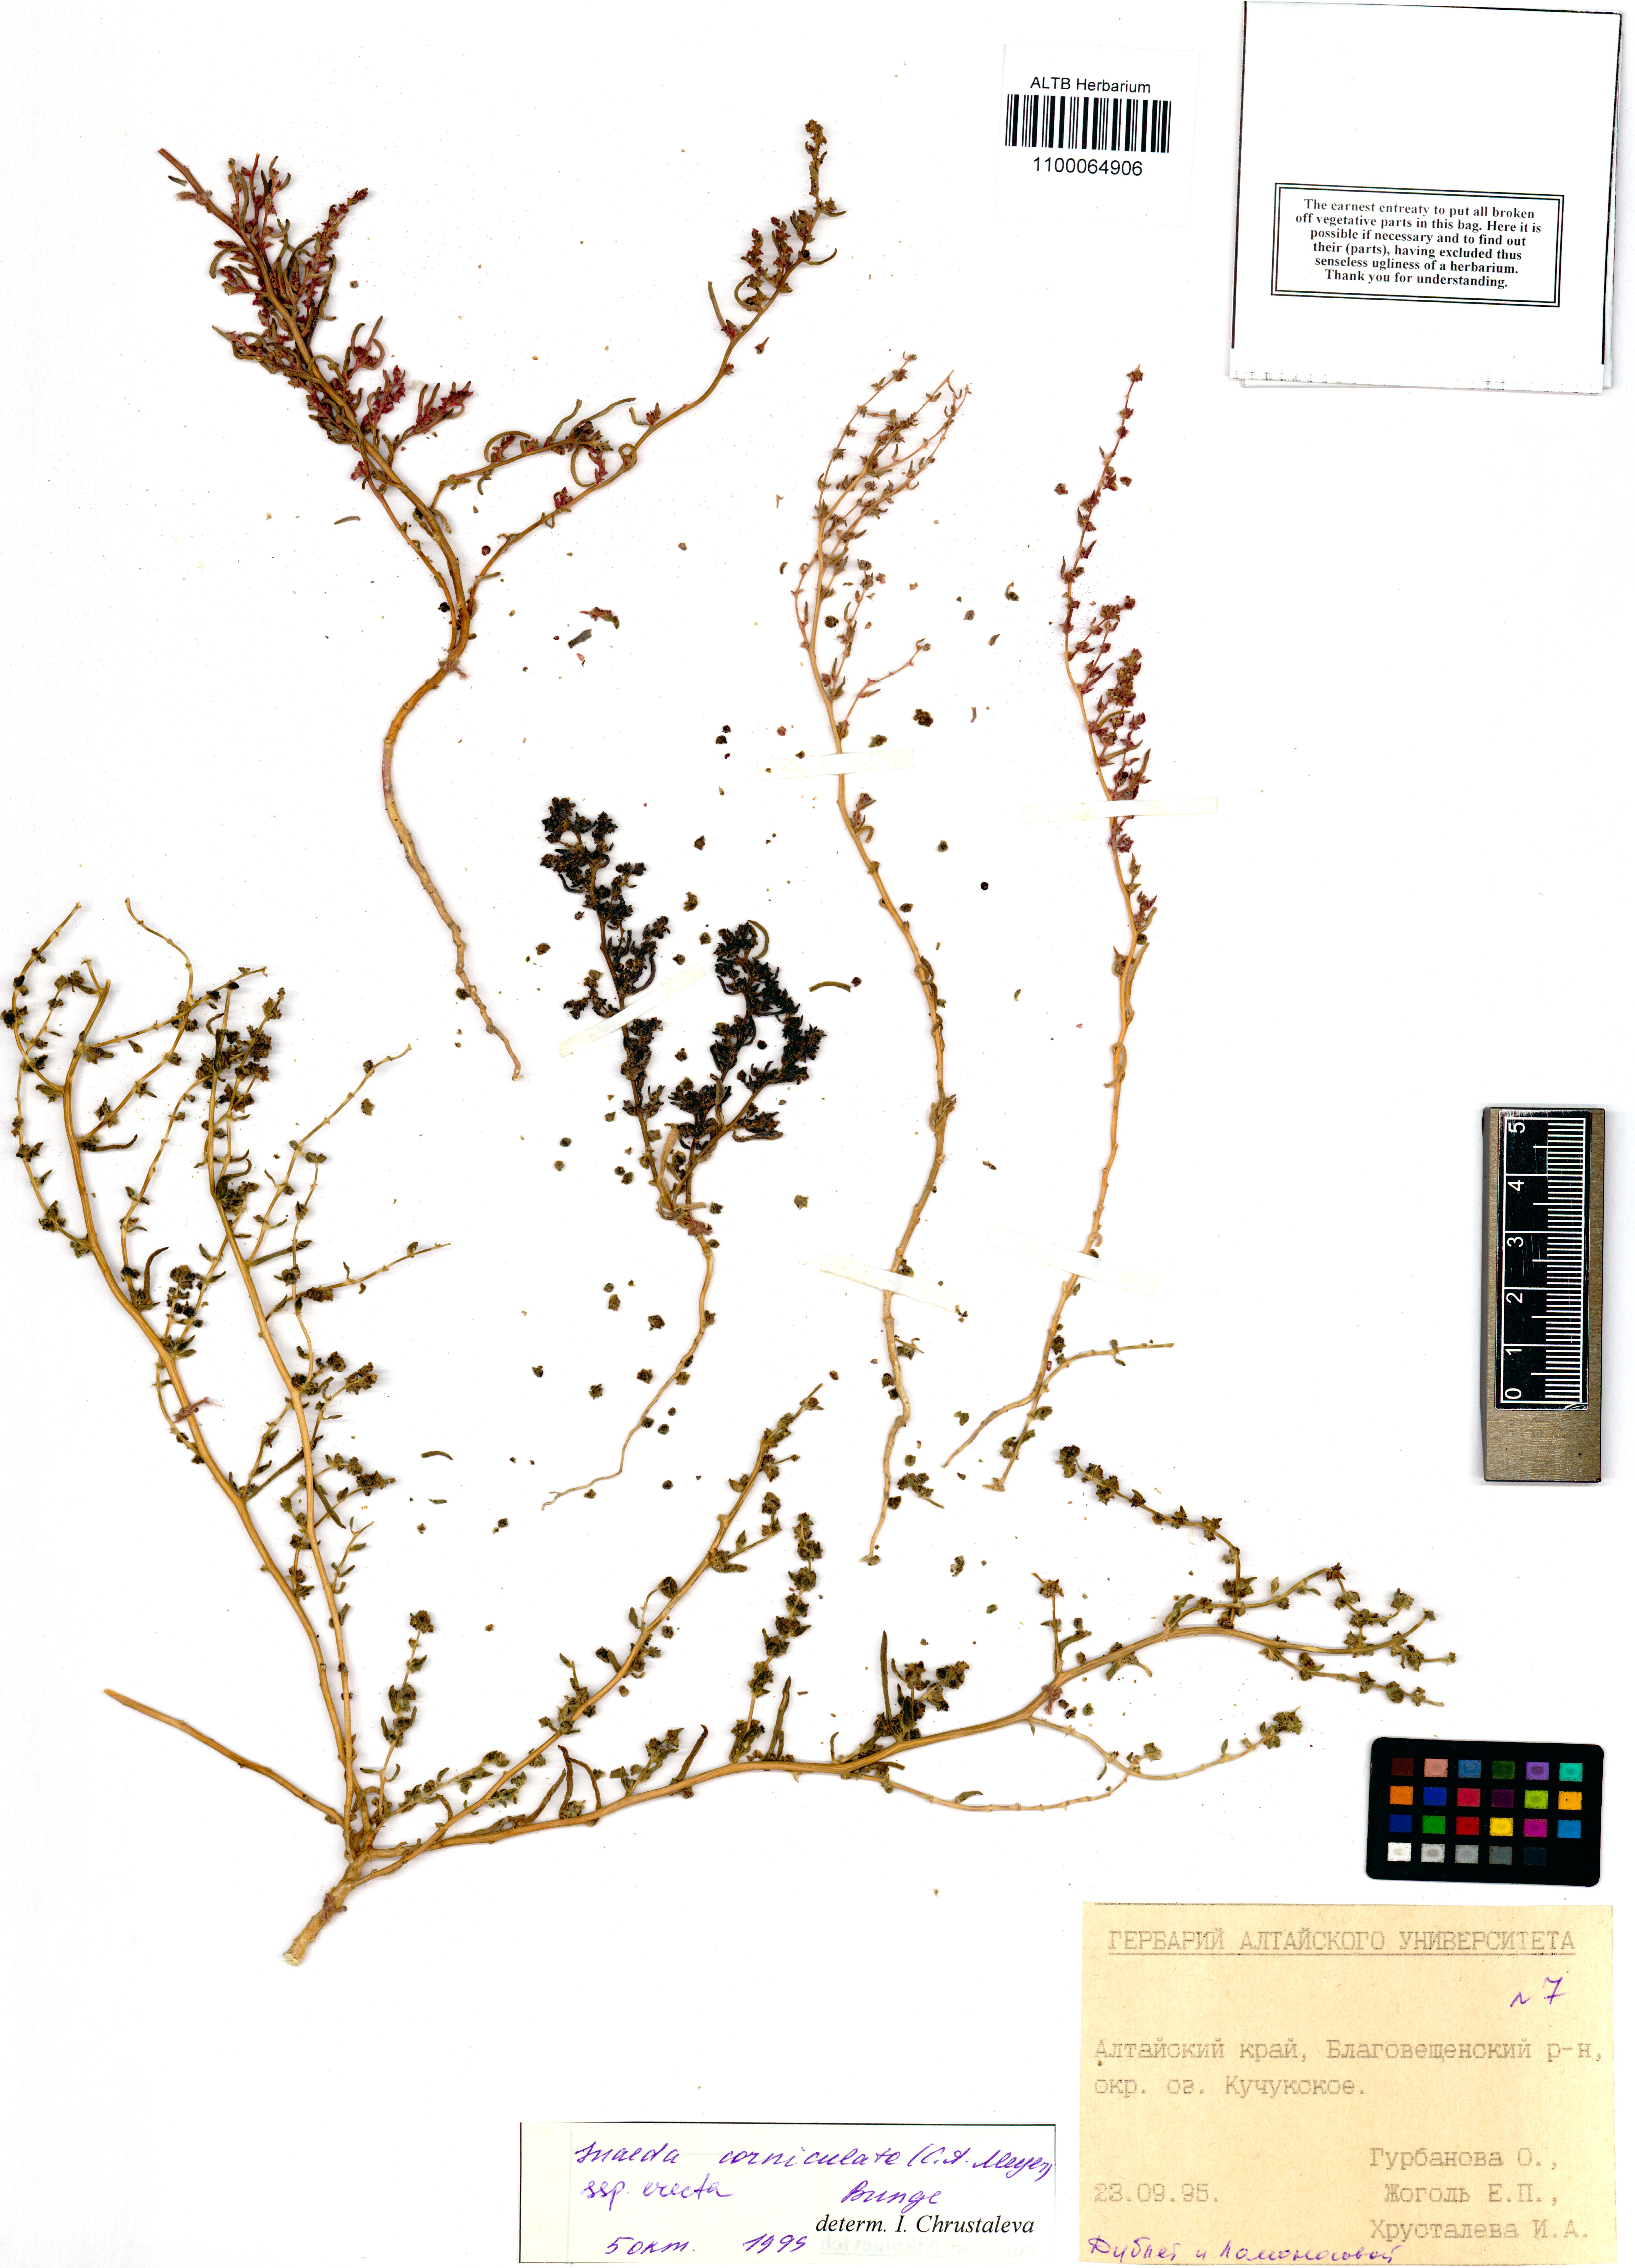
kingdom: Plantae
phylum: Tracheophyta
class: Magnoliopsida
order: Caryophyllales
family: Amaranthaceae
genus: Suaeda
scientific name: Suaeda corniculata
